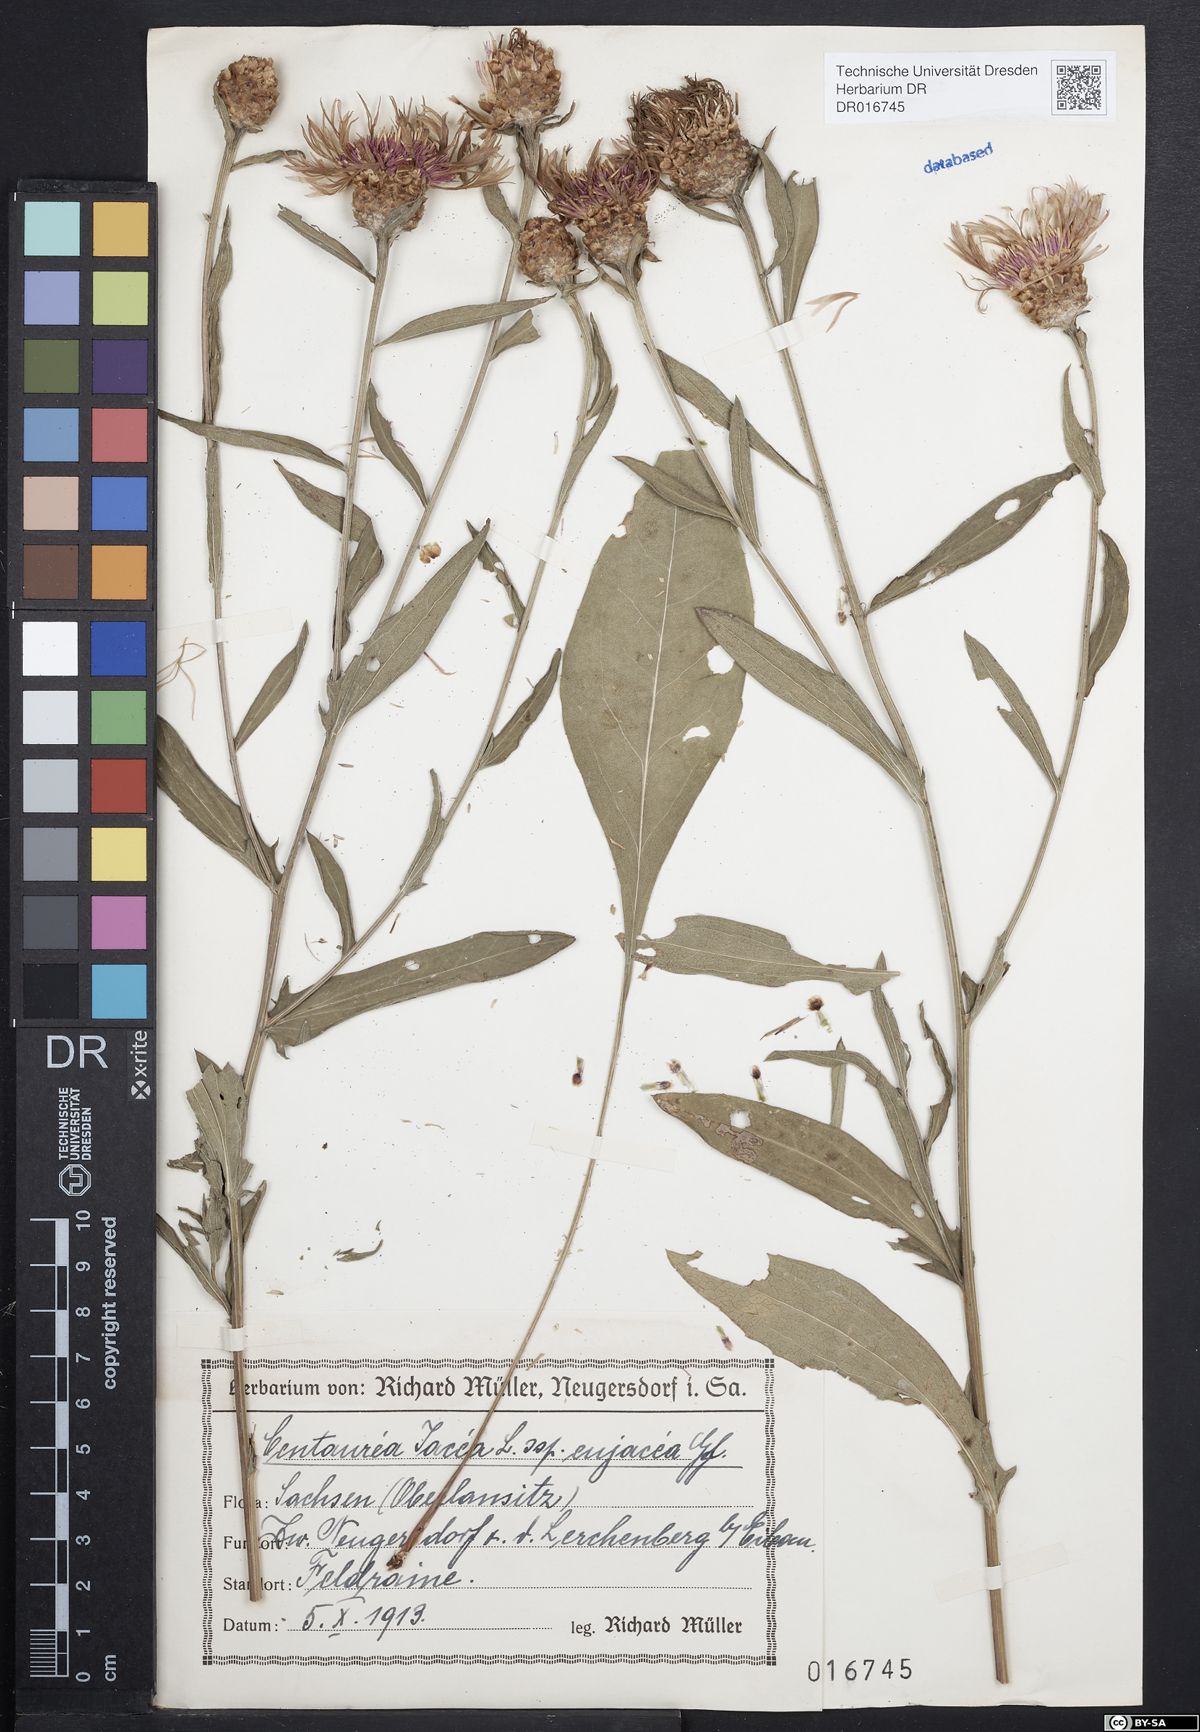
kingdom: Plantae
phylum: Tracheophyta
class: Magnoliopsida
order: Asterales
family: Asteraceae
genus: Centaurea
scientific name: Centaurea jacea
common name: Brown knapweed
